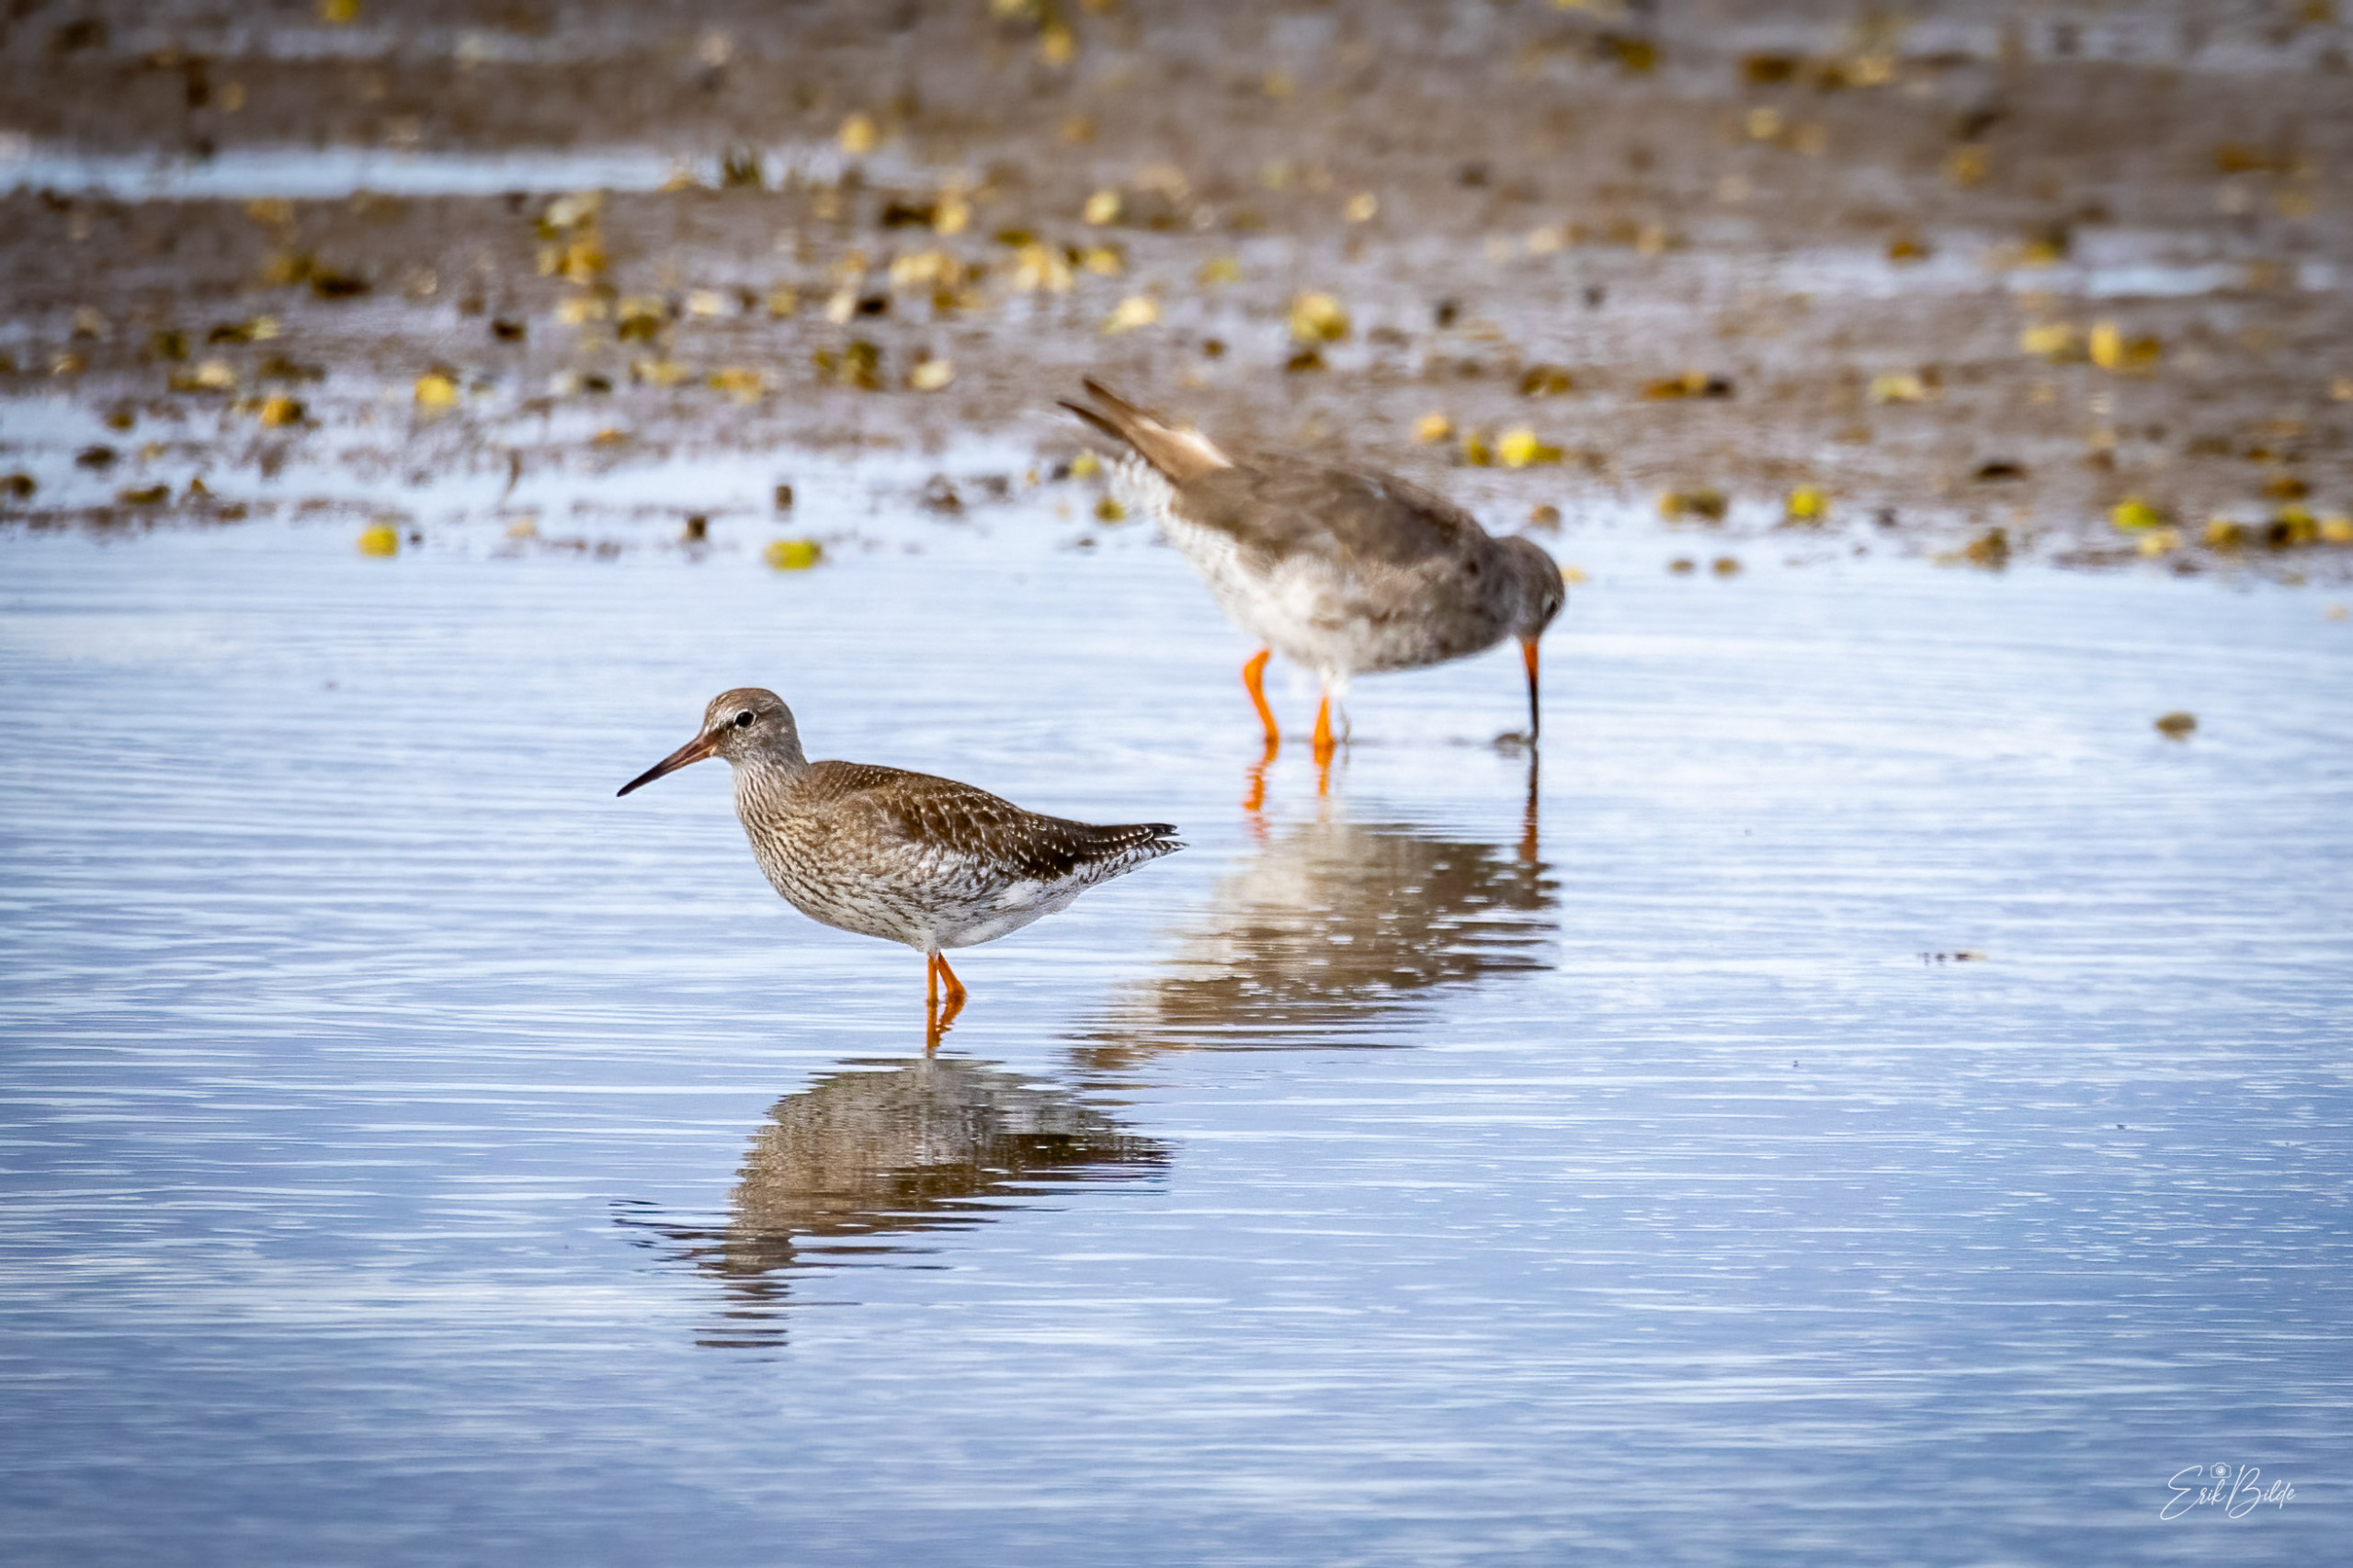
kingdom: Animalia
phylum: Chordata
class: Aves
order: Charadriiformes
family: Scolopacidae
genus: Tringa
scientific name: Tringa totanus
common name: Rødben
